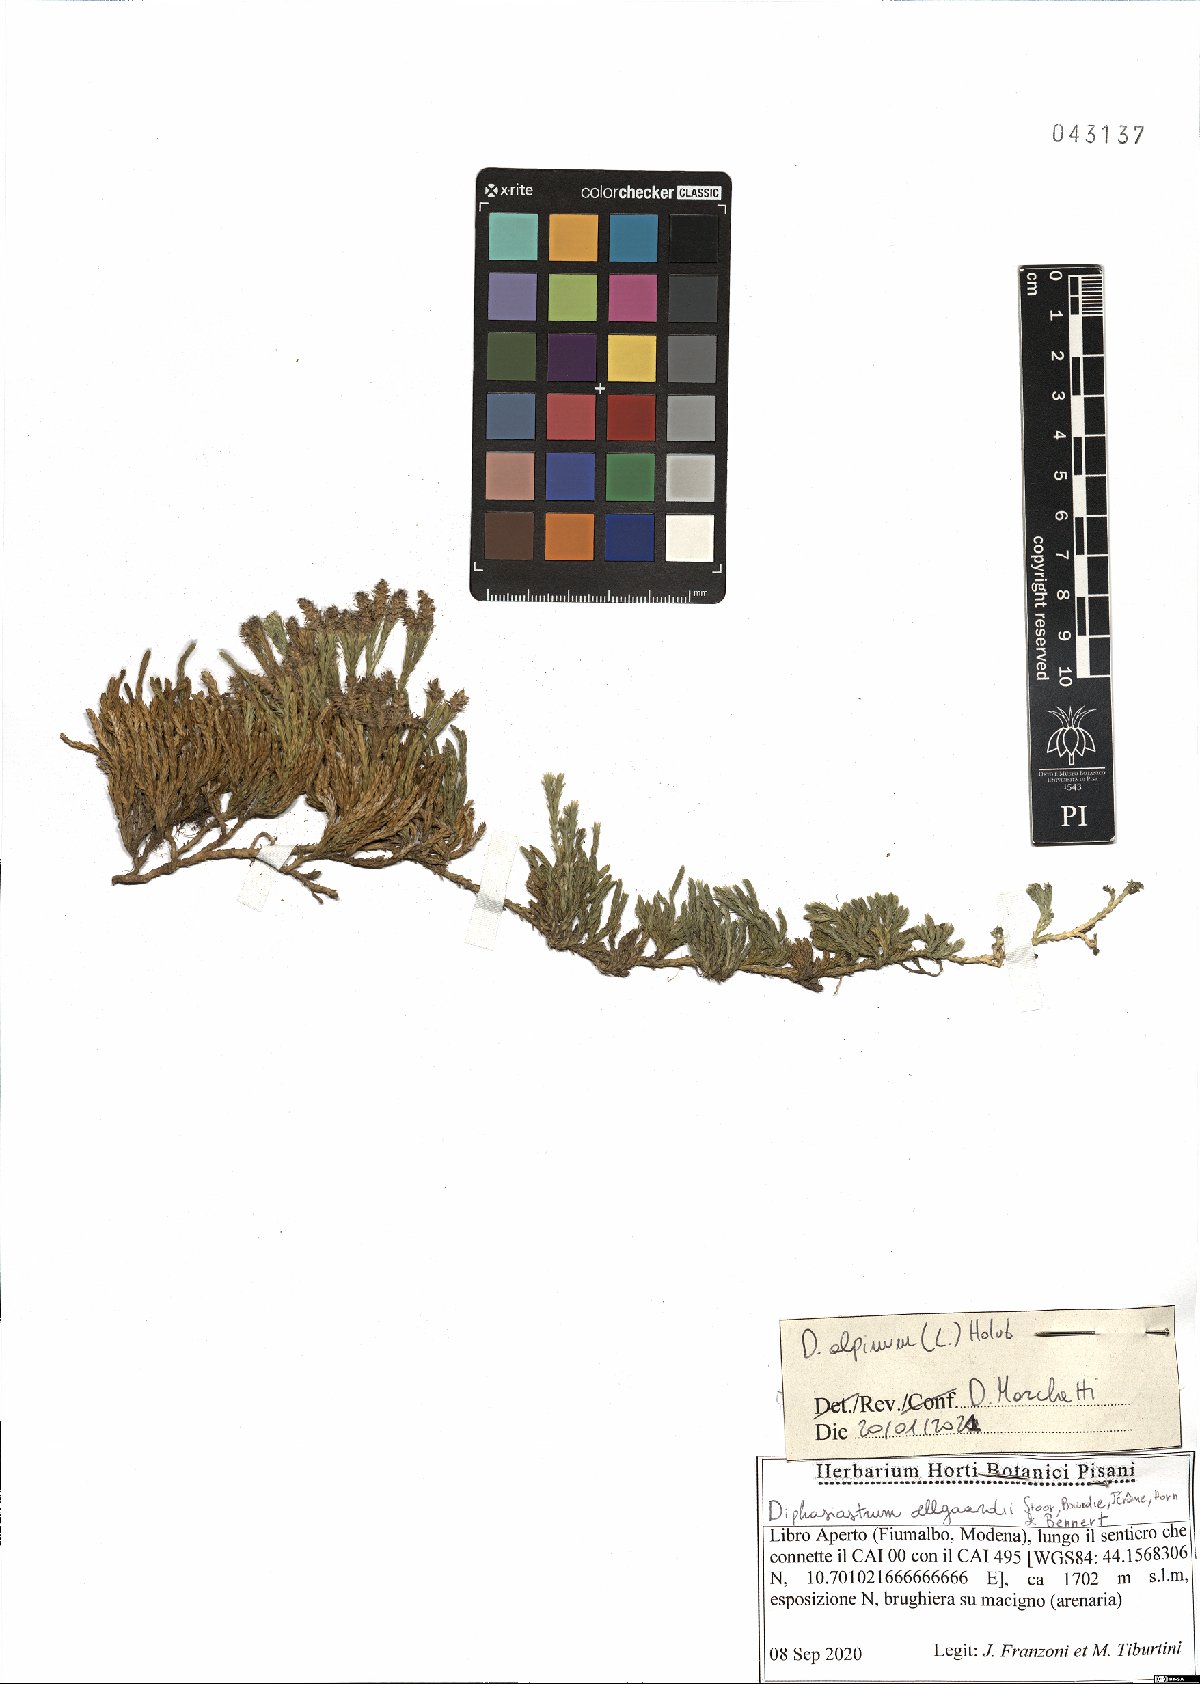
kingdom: Plantae
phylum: Tracheophyta
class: Lycopodiopsida
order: Lycopodiales
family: Lycopodiaceae
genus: Diphasiastrum
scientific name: Diphasiastrum alpinum
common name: Alpine clubmoss
